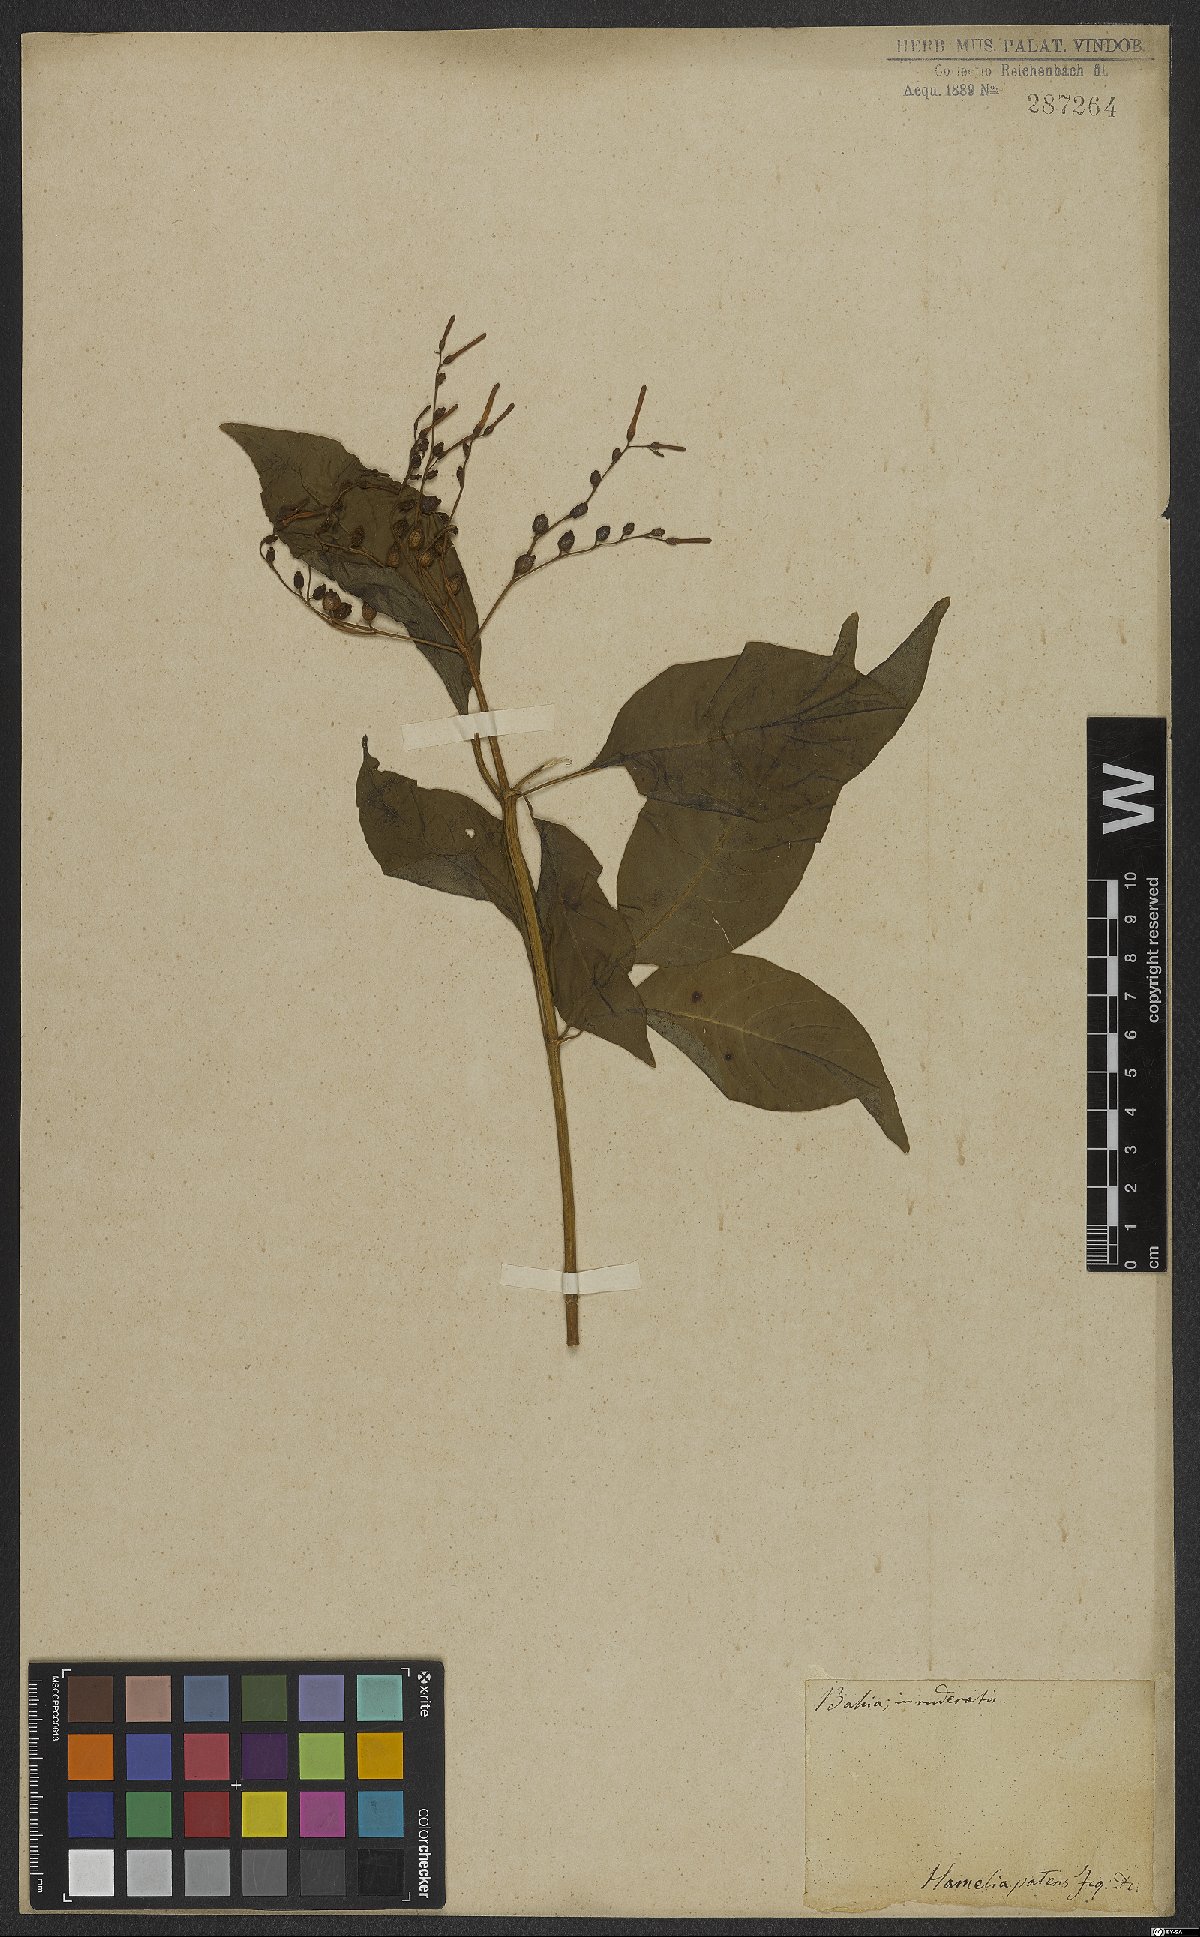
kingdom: Plantae
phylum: Tracheophyta
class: Magnoliopsida
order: Gentianales
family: Rubiaceae
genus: Hamelia
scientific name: Hamelia patens
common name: Redhead
